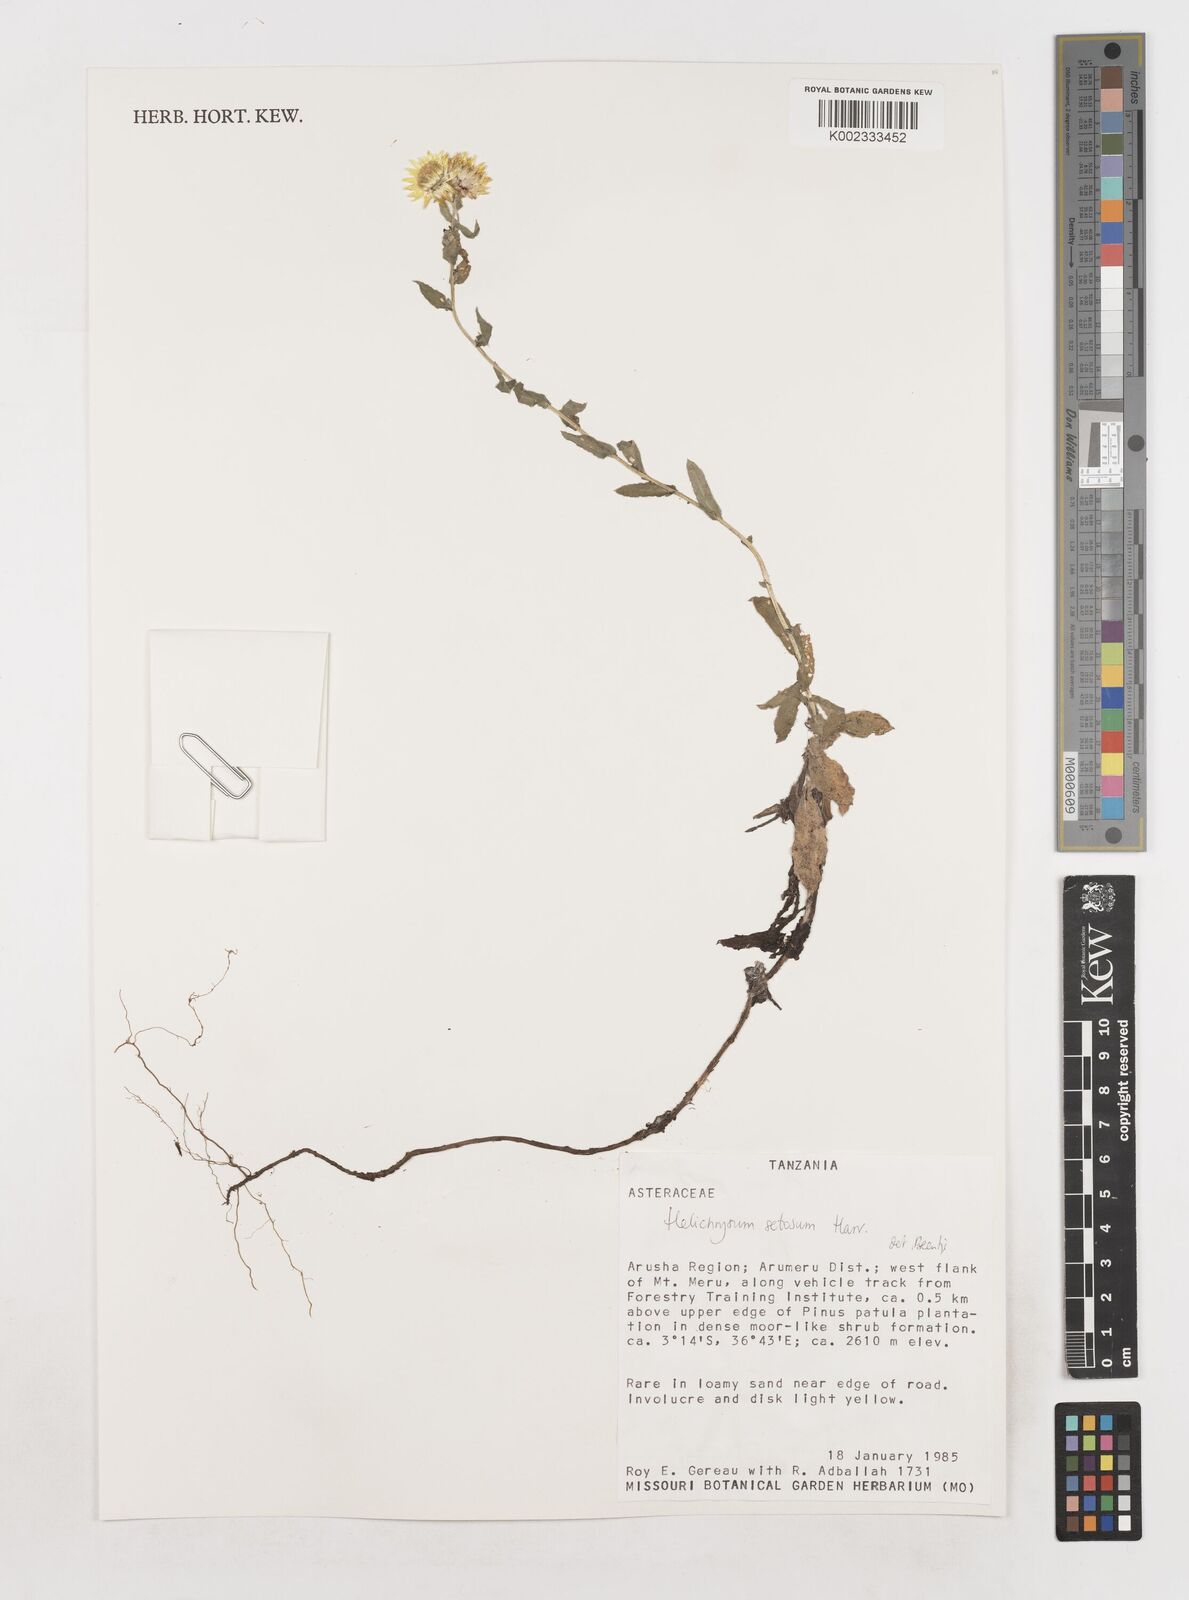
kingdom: Plantae
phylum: Tracheophyta
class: Magnoliopsida
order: Asterales
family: Asteraceae
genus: Helichrysum
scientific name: Helichrysum setosum
